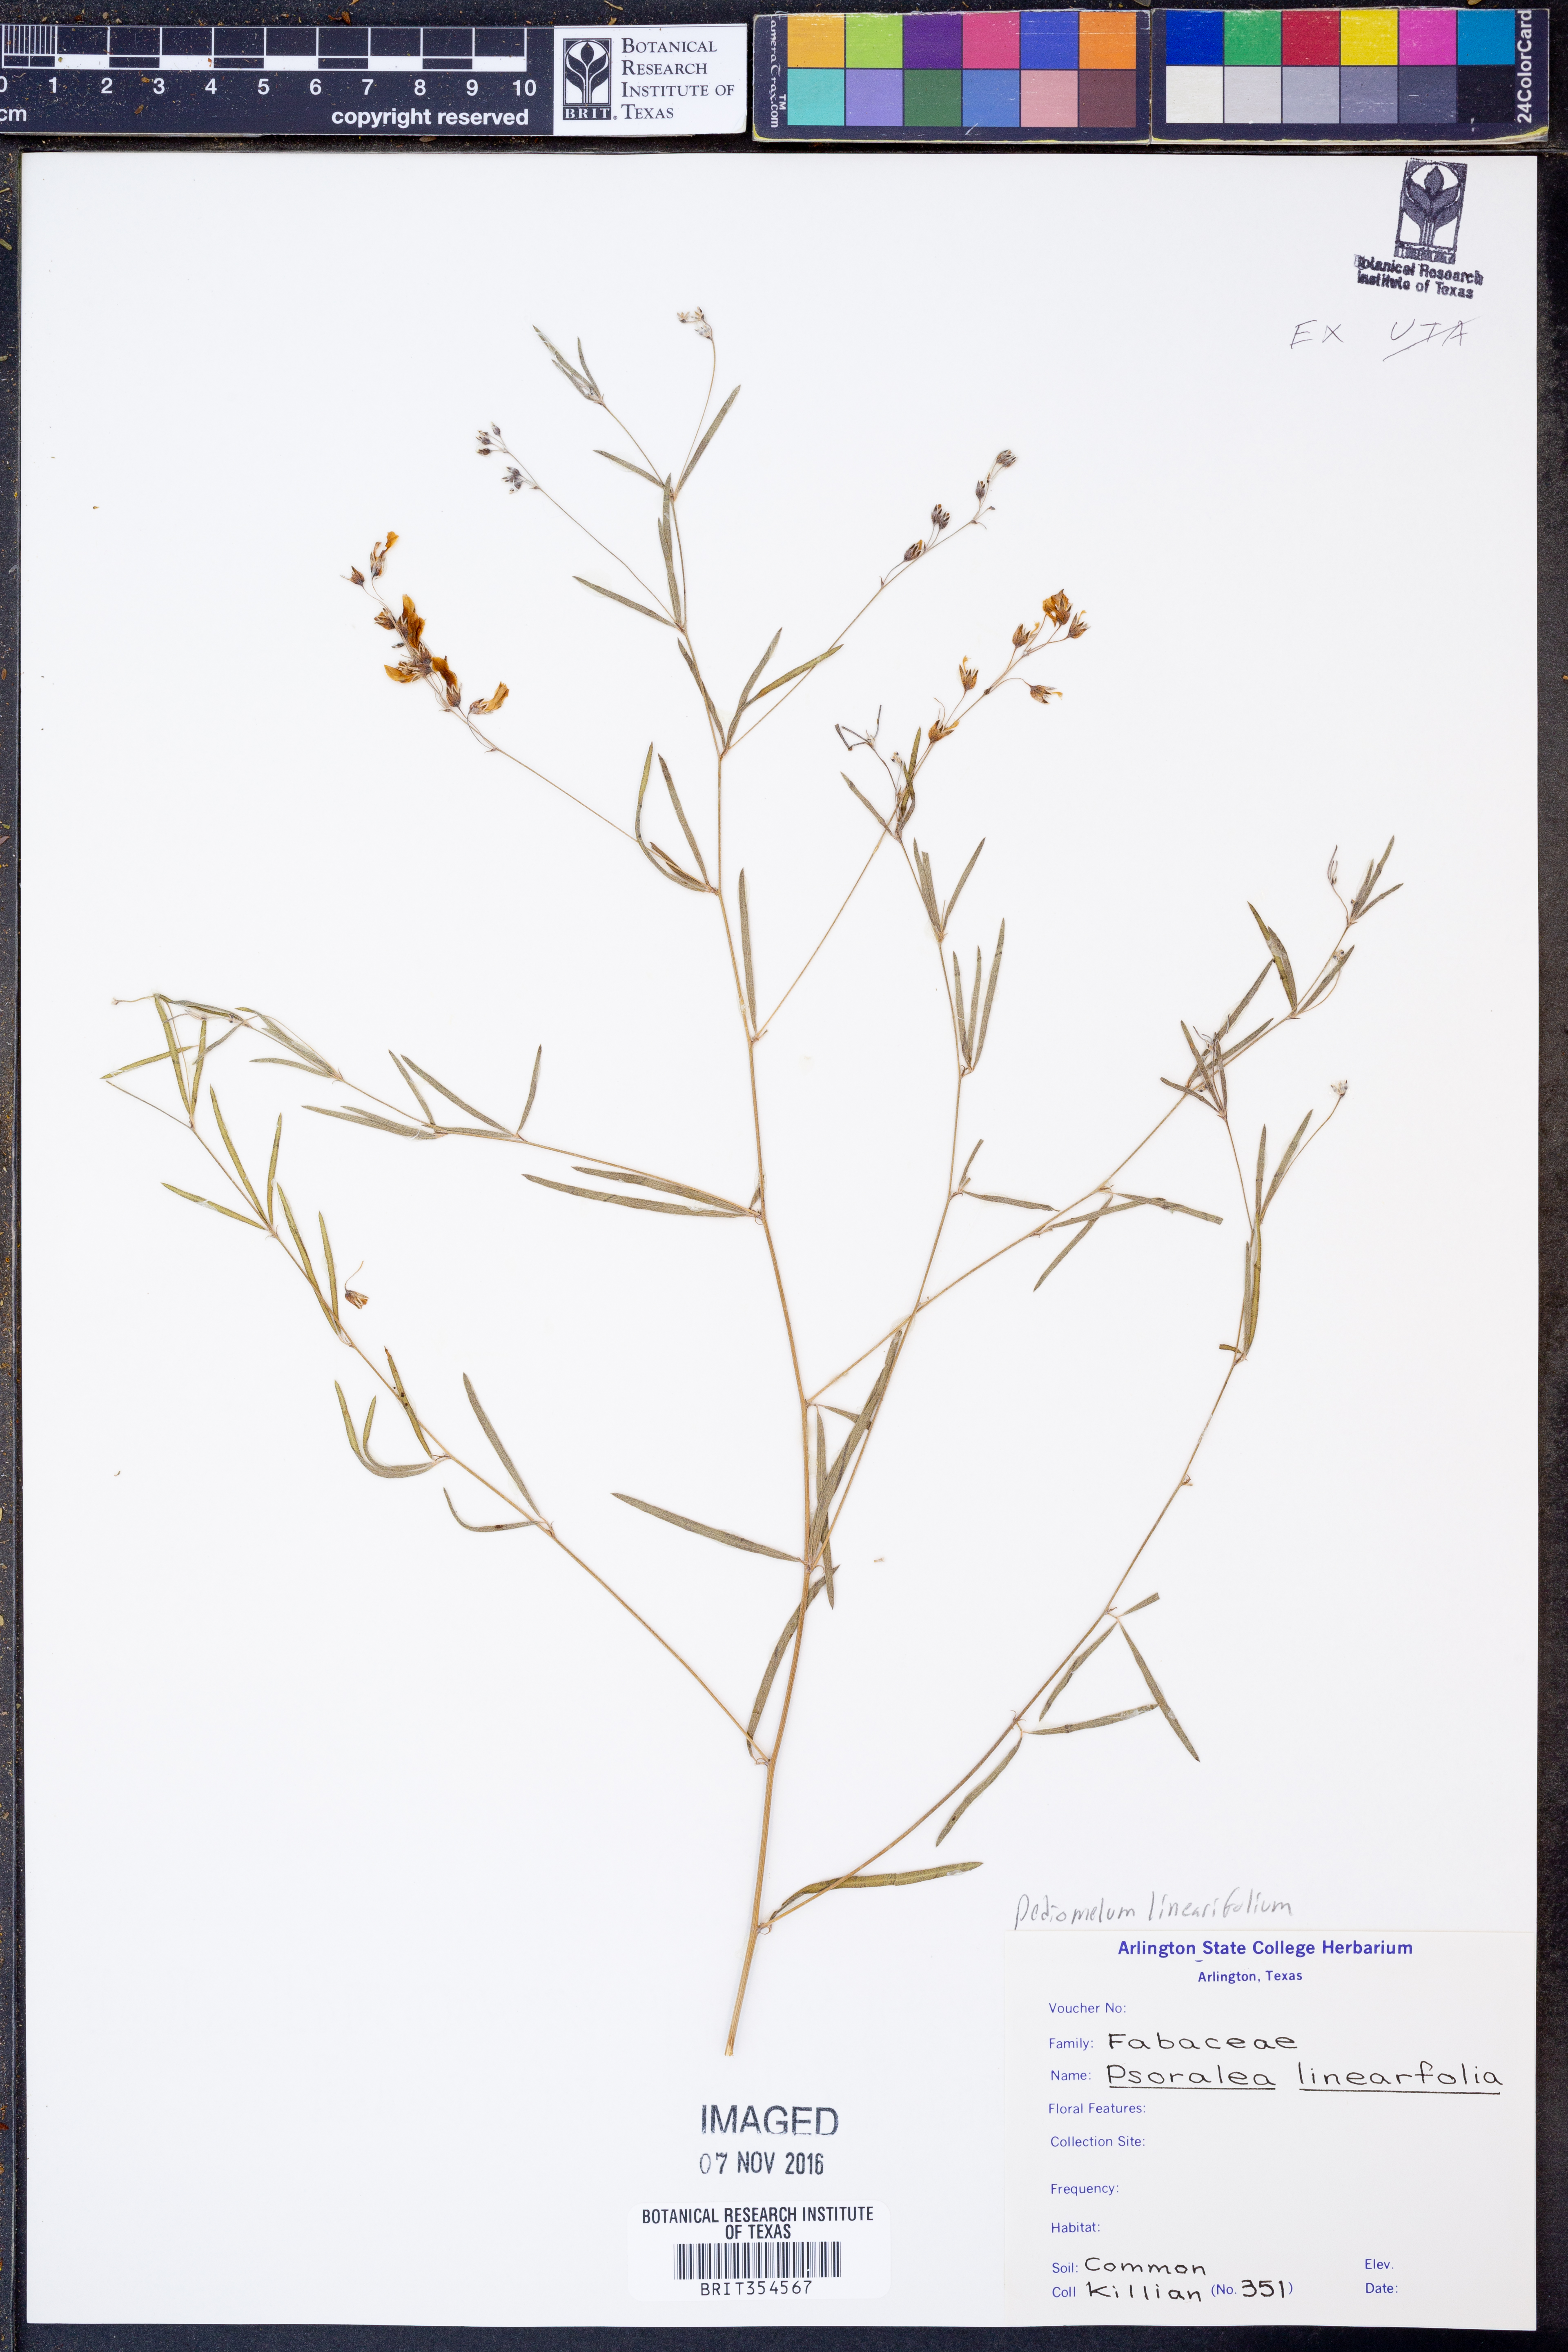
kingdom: Plantae
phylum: Tracheophyta
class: Magnoliopsida
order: Fabales
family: Fabaceae
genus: Pediomelum
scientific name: Pediomelum linearifolium
